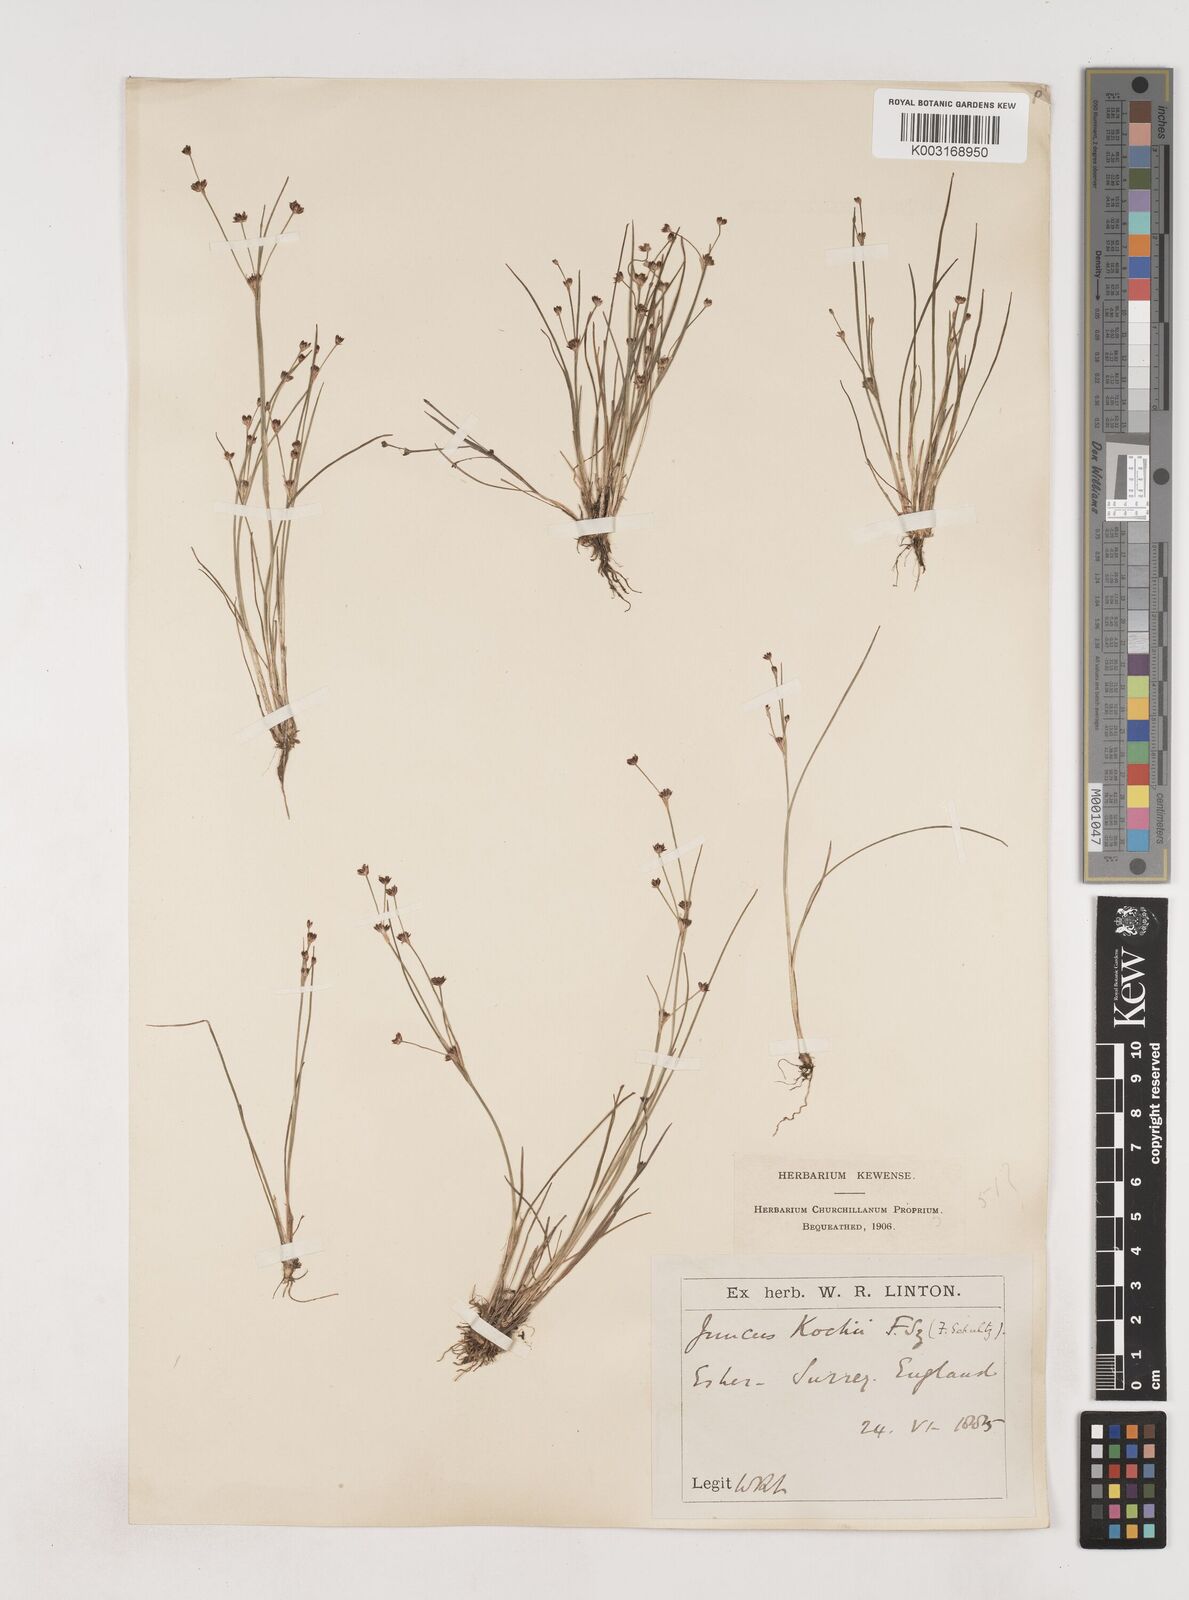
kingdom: Plantae
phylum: Tracheophyta
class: Liliopsida
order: Poales
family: Juncaceae
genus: Juncus
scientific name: Juncus bulbosus
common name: Bulbous rush
